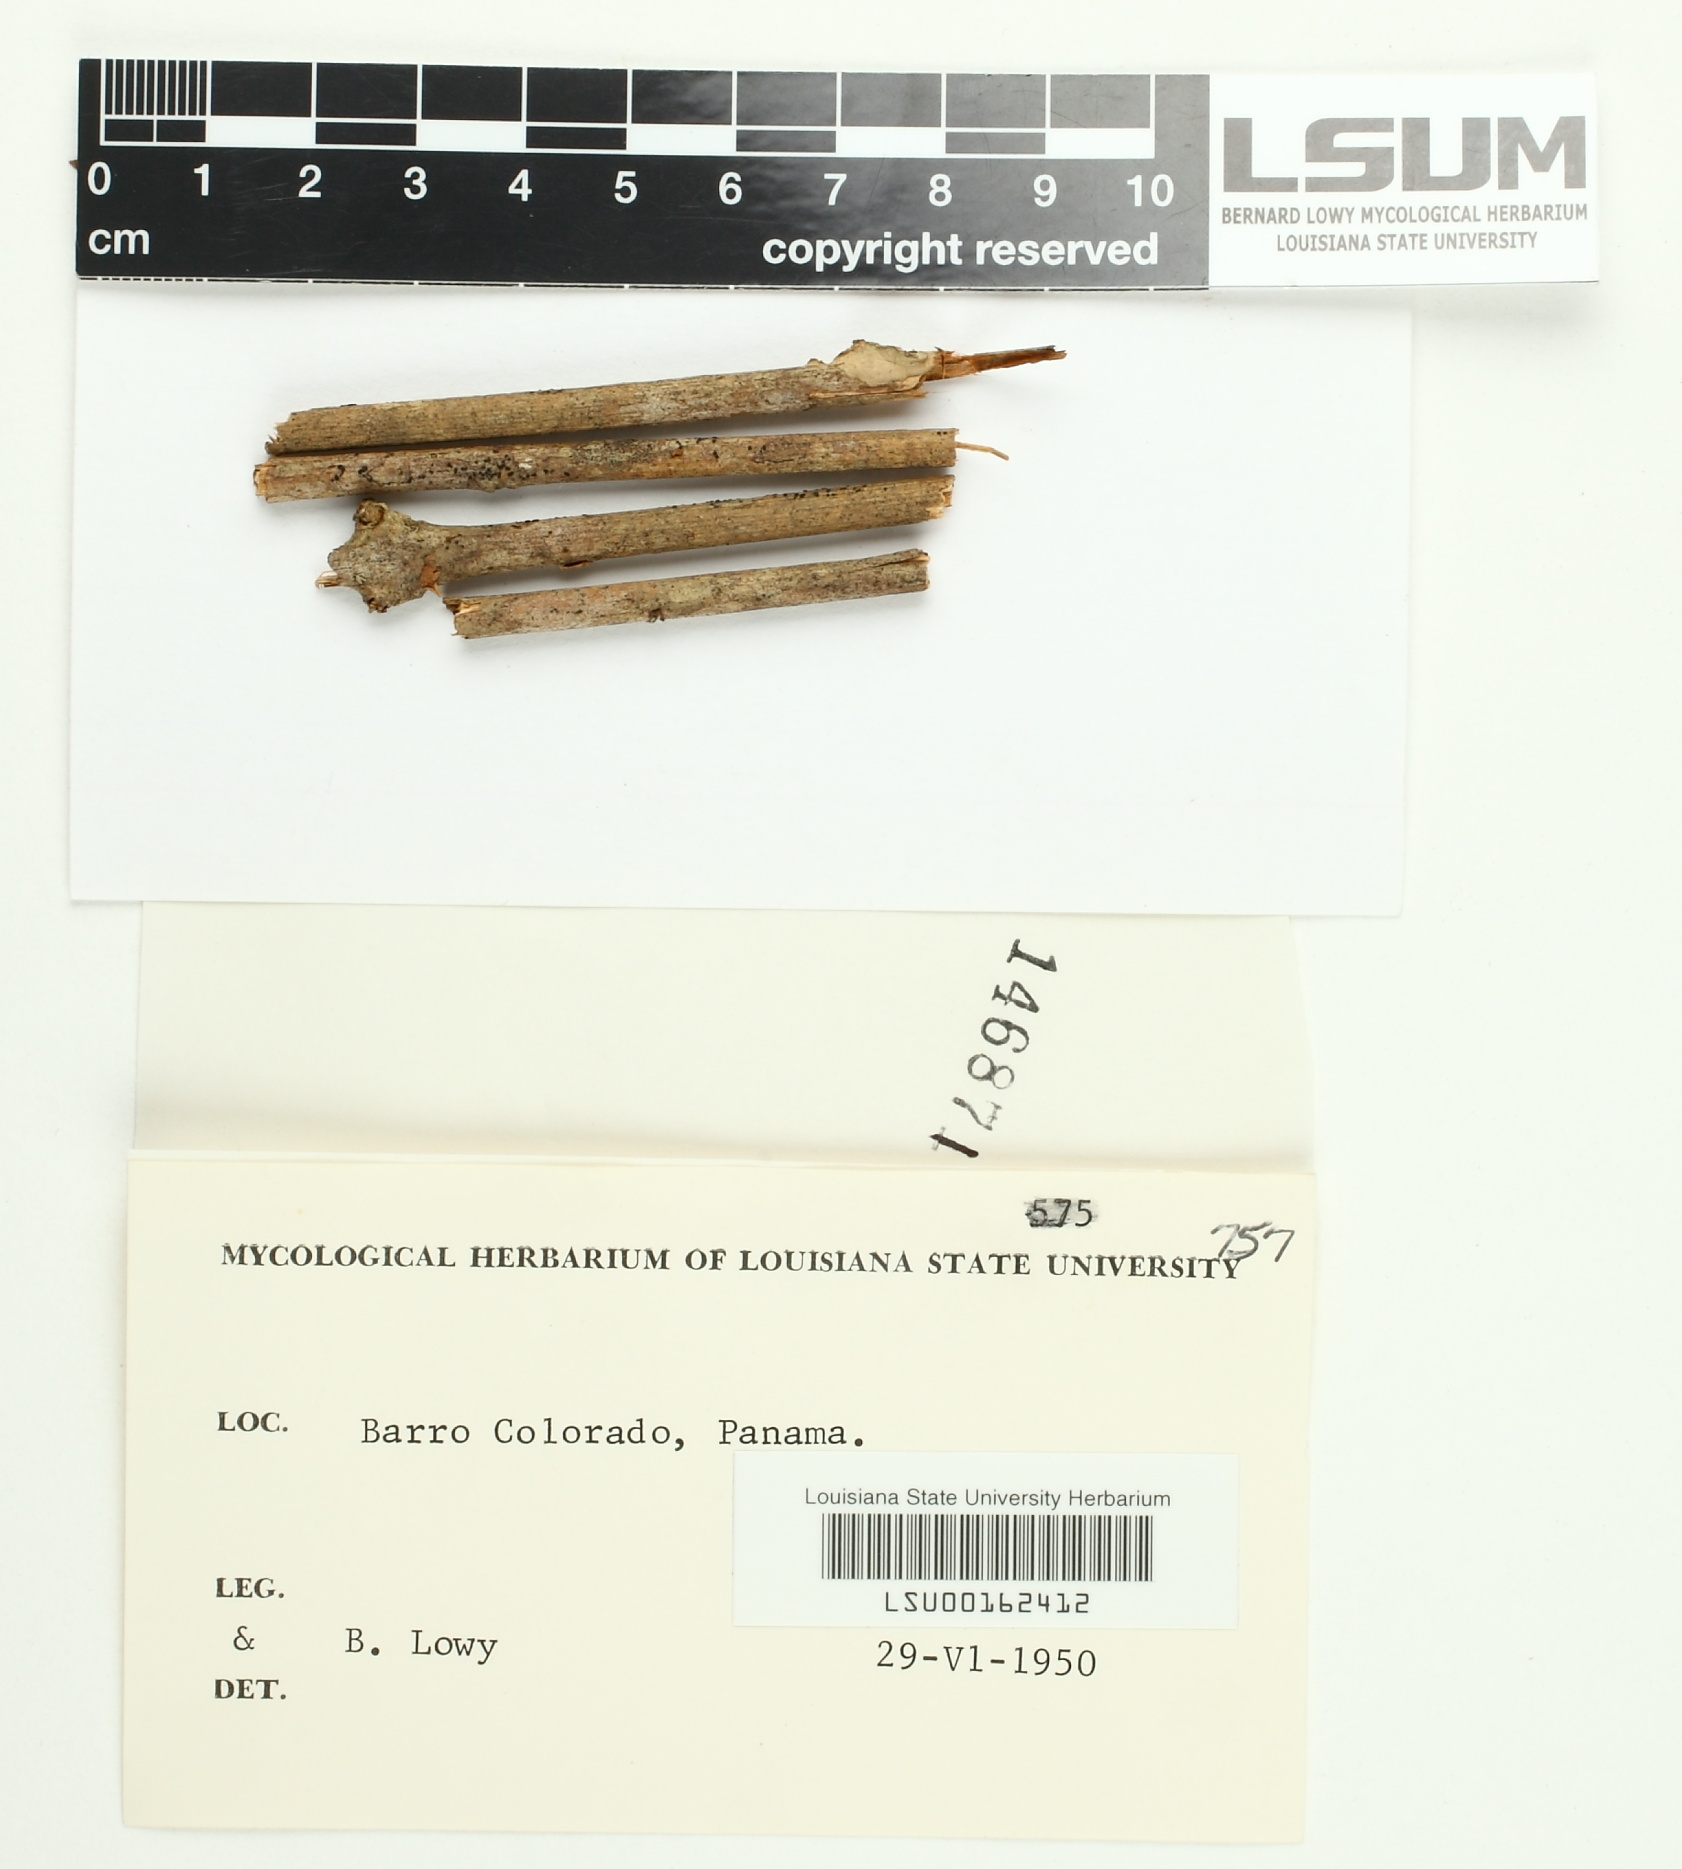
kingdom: Fungi
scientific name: Fungi
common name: Fungi
